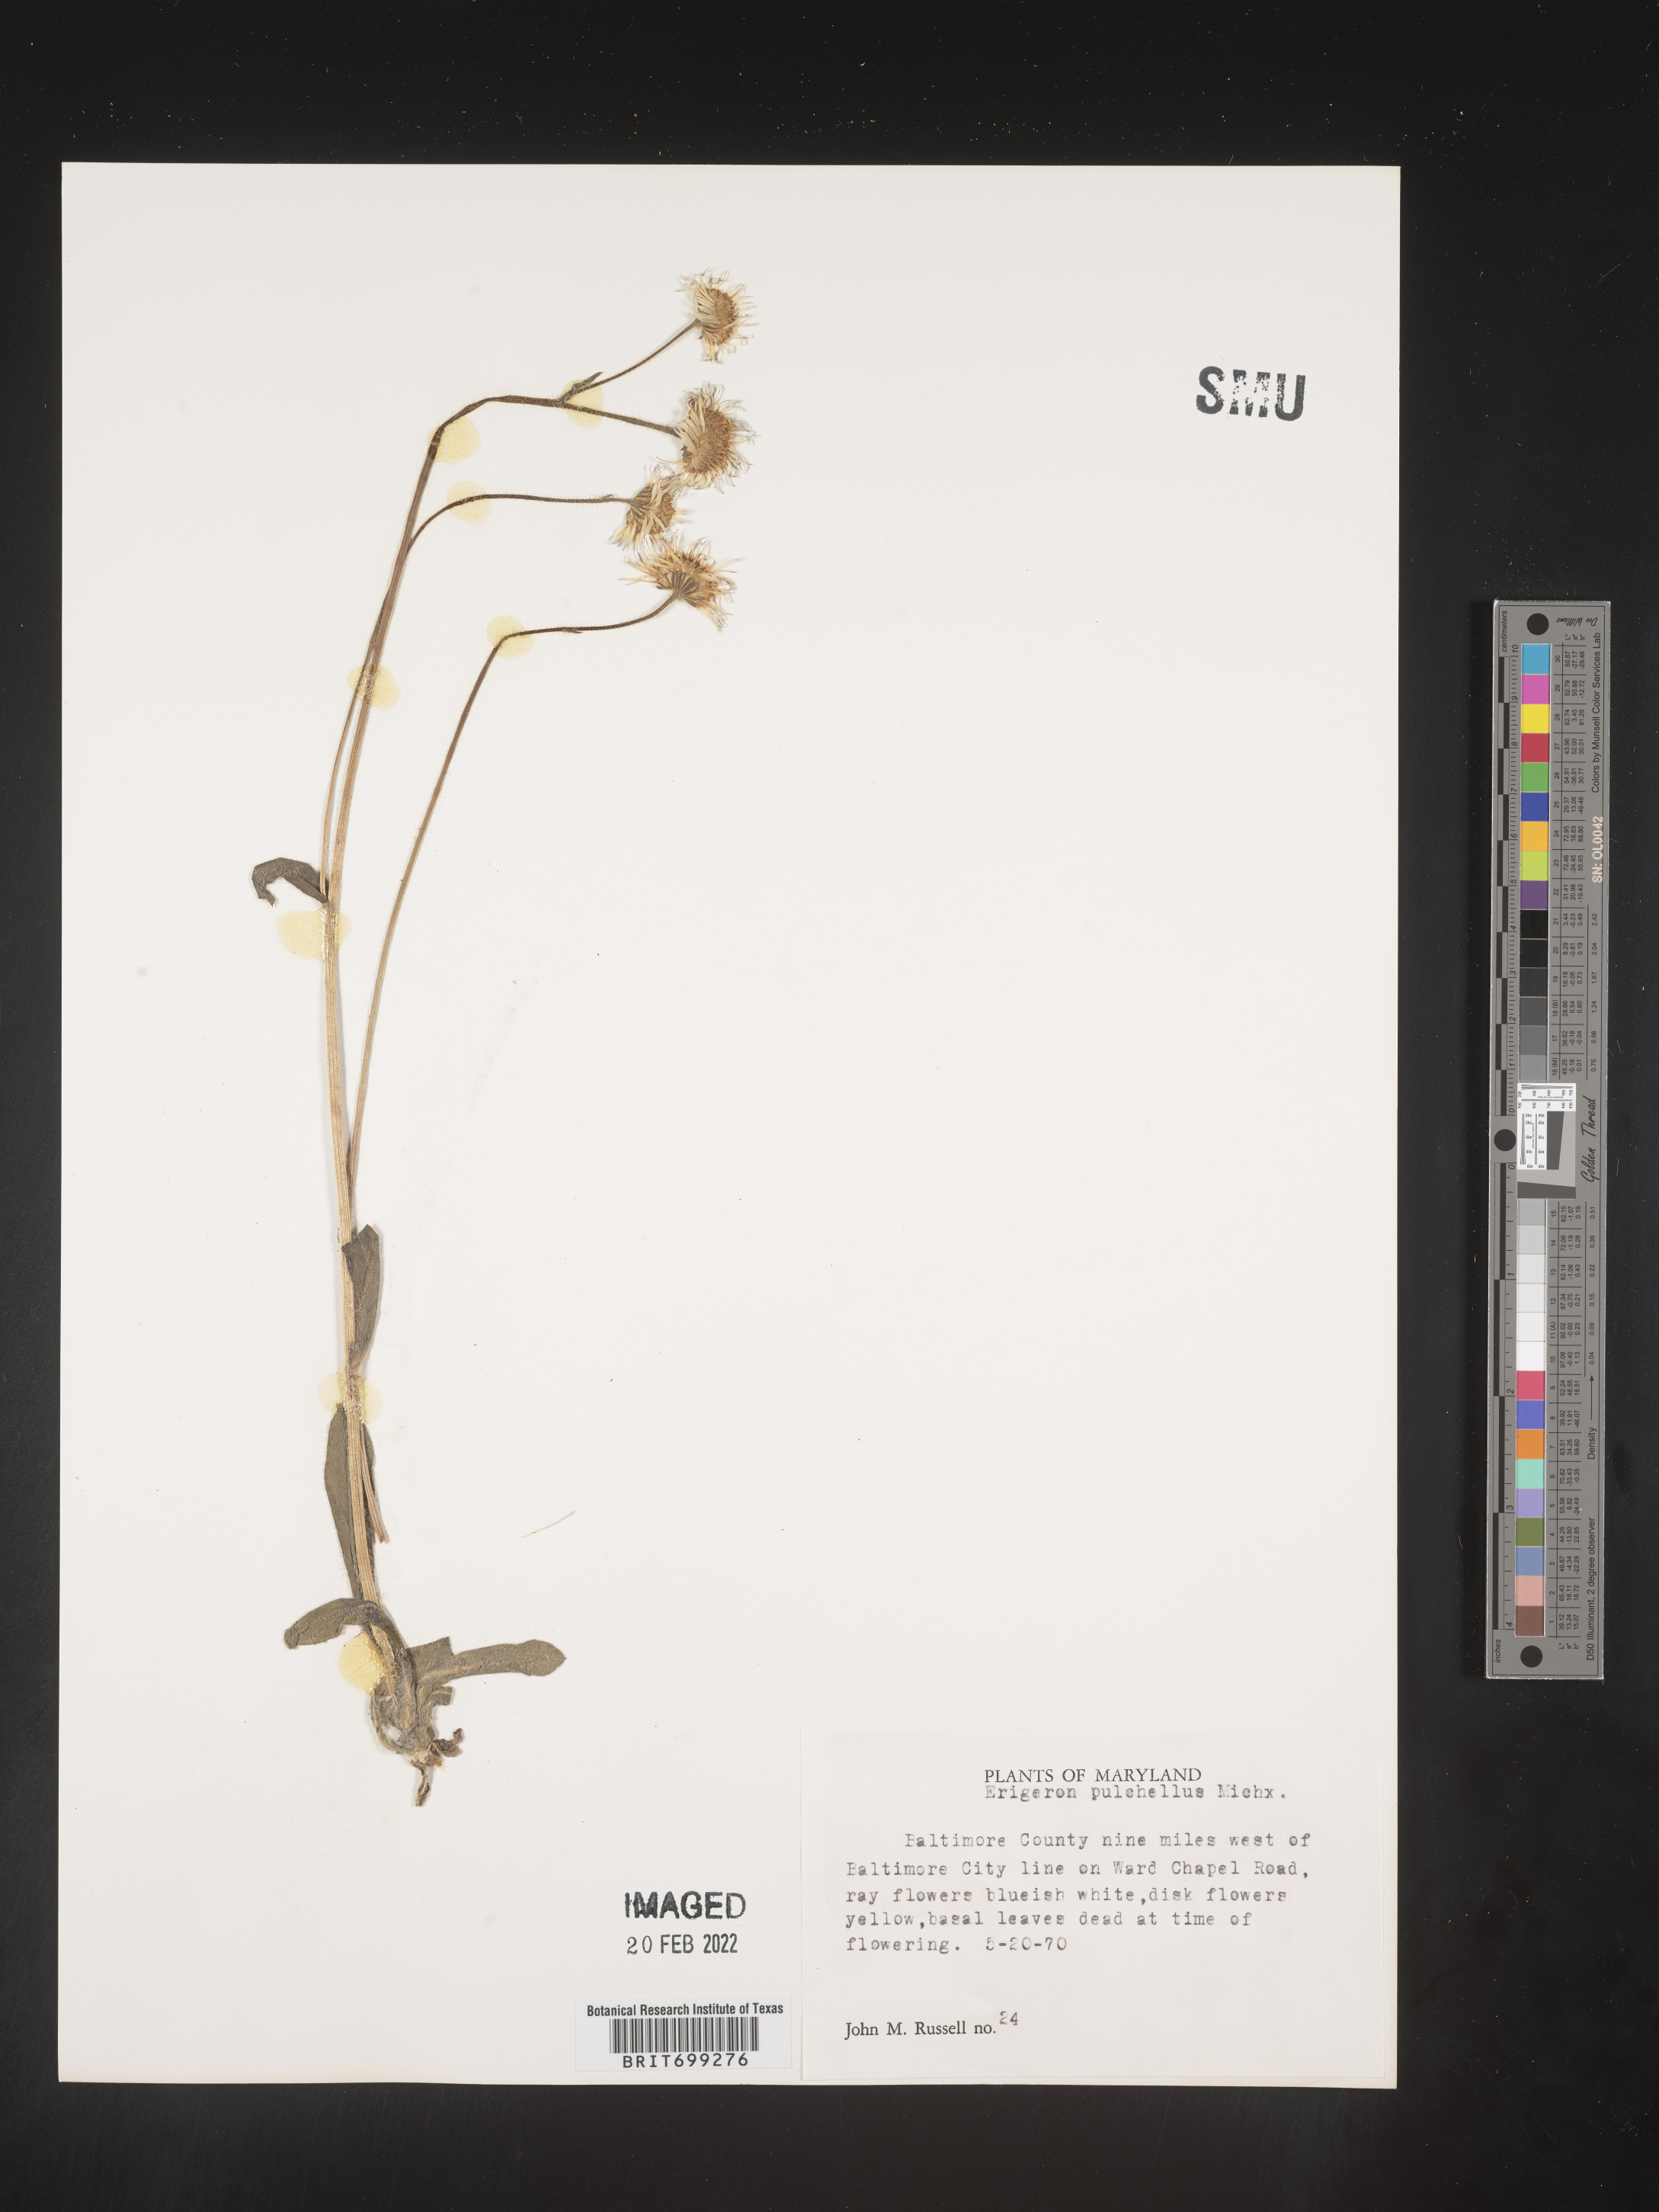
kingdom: Plantae
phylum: Tracheophyta
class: Magnoliopsida
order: Asterales
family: Asteraceae
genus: Erigeron
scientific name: Erigeron pulchellus
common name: Hairy fleabane
